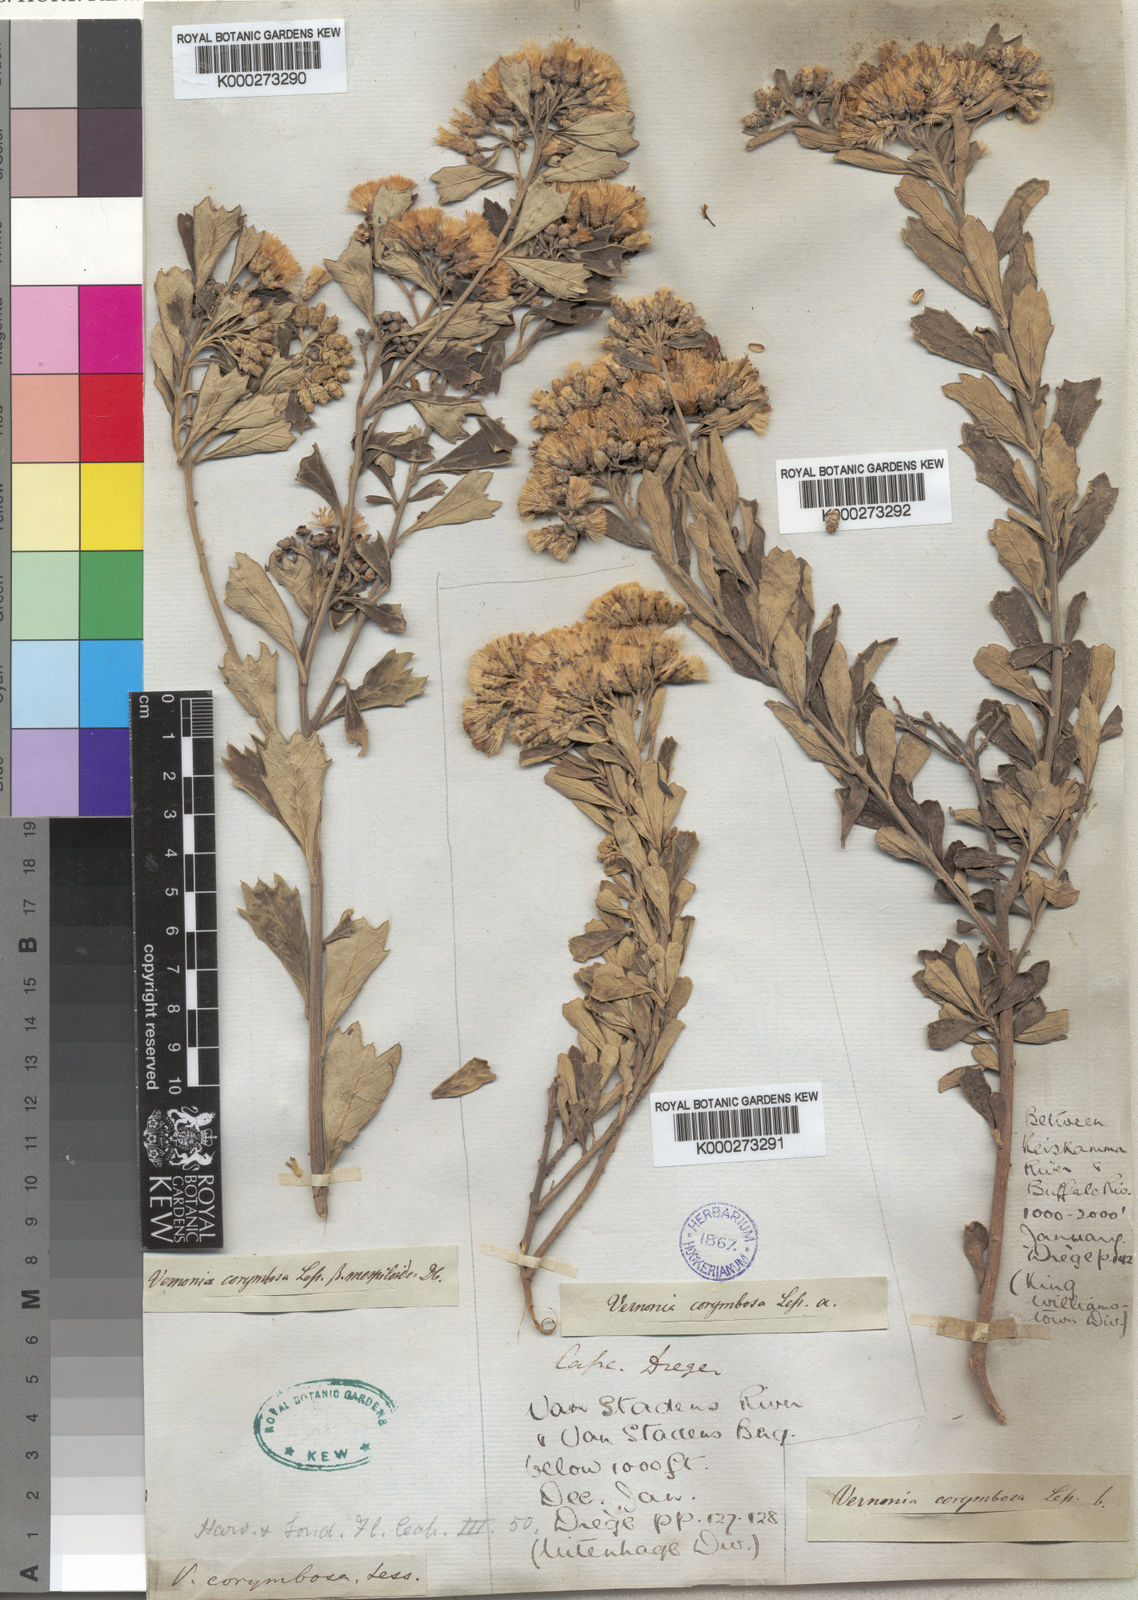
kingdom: Plantae
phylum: Tracheophyta
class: Magnoliopsida
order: Asterales
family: Asteraceae
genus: Vernonia
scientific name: Vernonia
